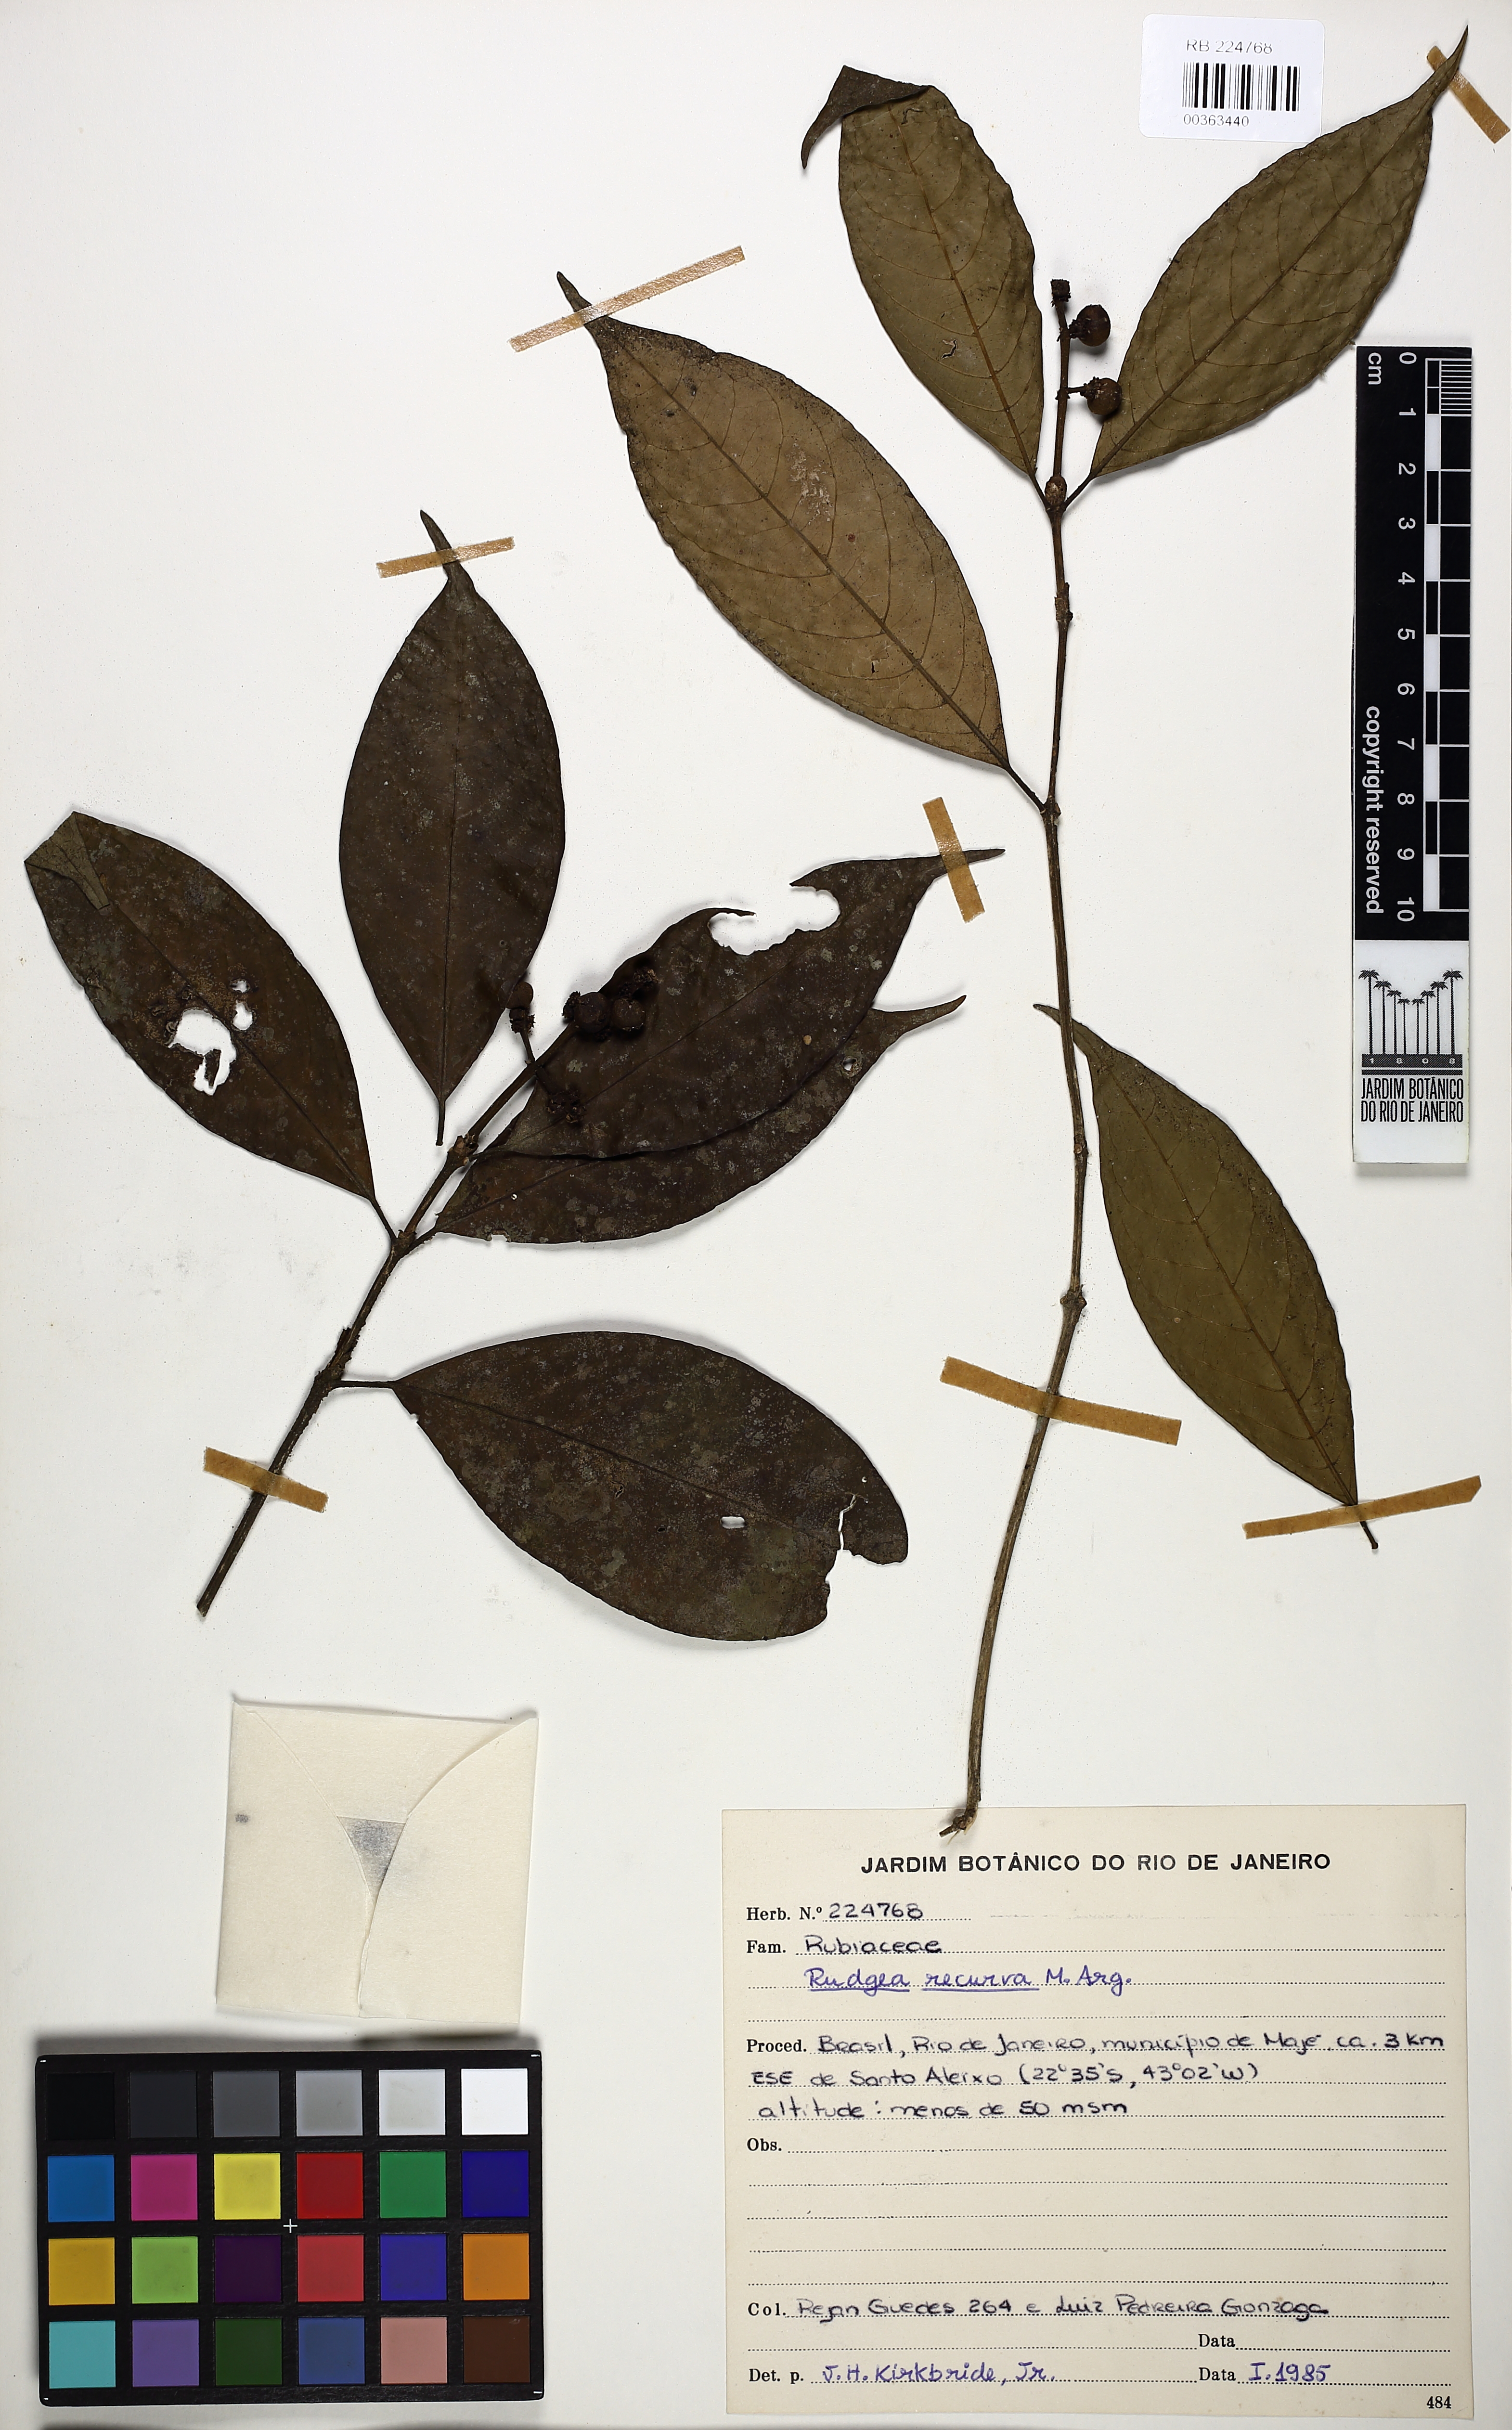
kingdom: Plantae
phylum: Tracheophyta
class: Magnoliopsida
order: Gentianales
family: Rubiaceae
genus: Rudgea
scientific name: Rudgea recurva
